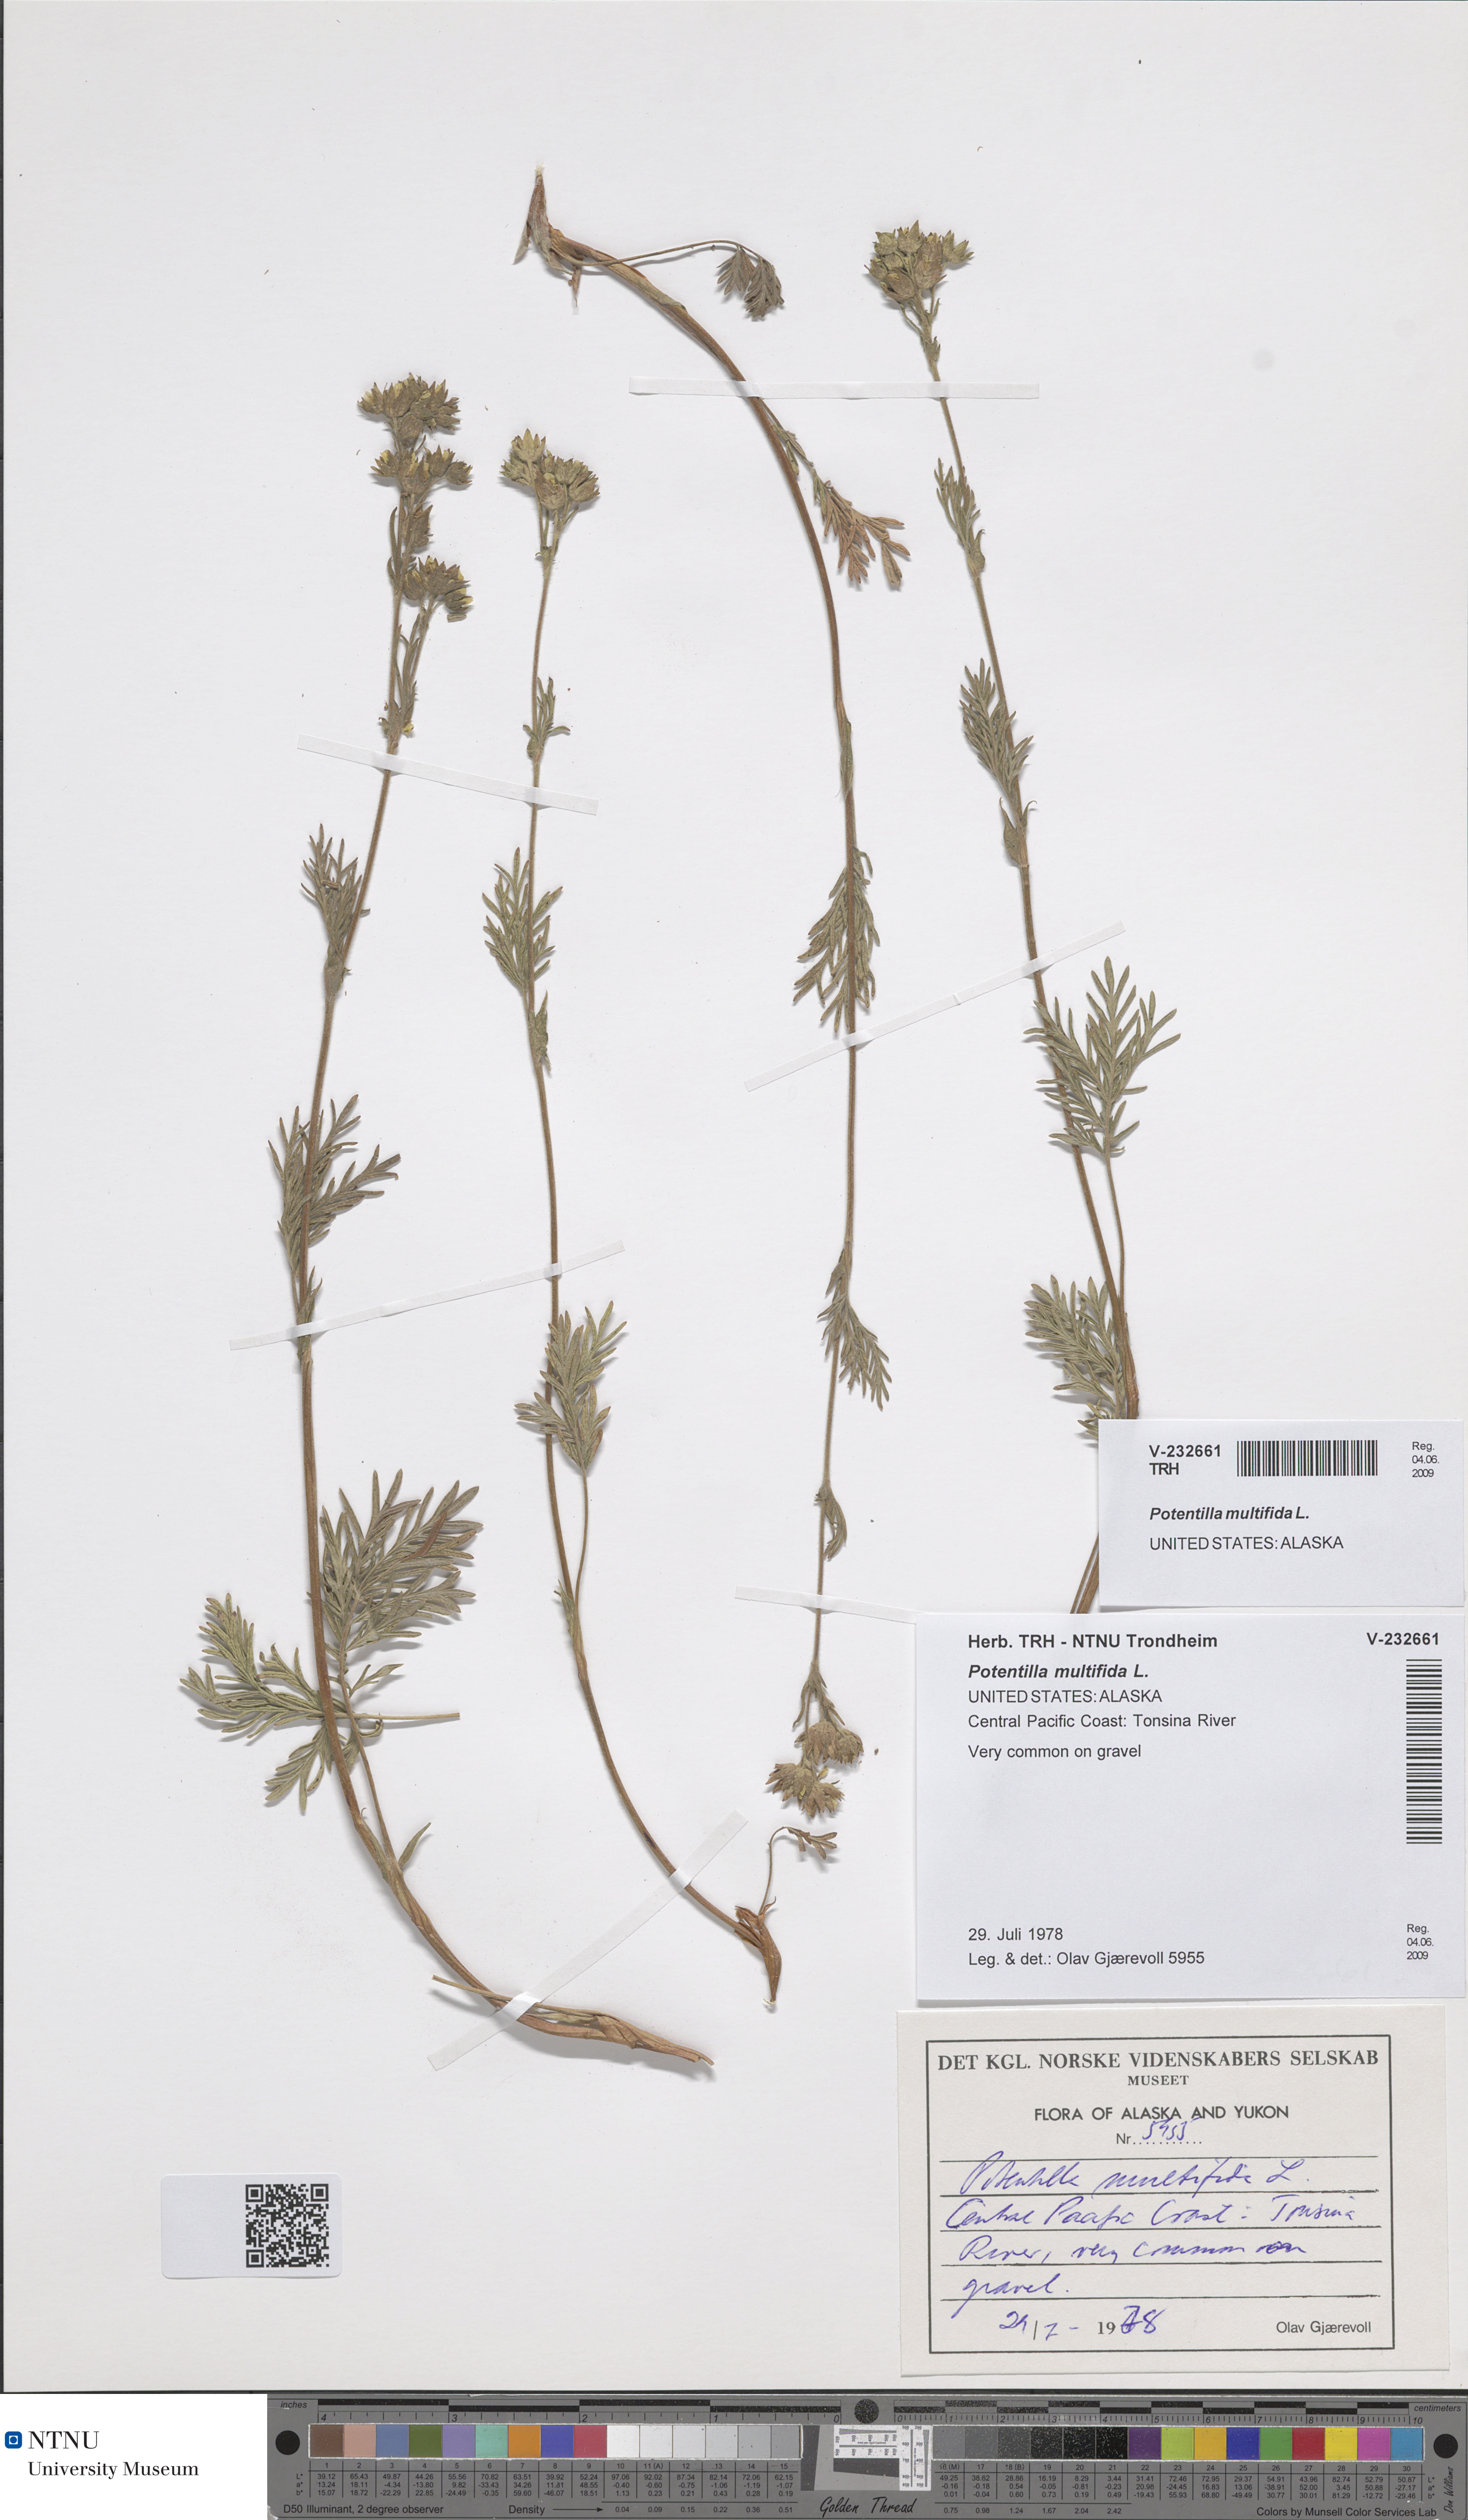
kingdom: Plantae
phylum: Tracheophyta
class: Magnoliopsida
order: Rosales
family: Rosaceae
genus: Potentilla
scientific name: Potentilla multifida
